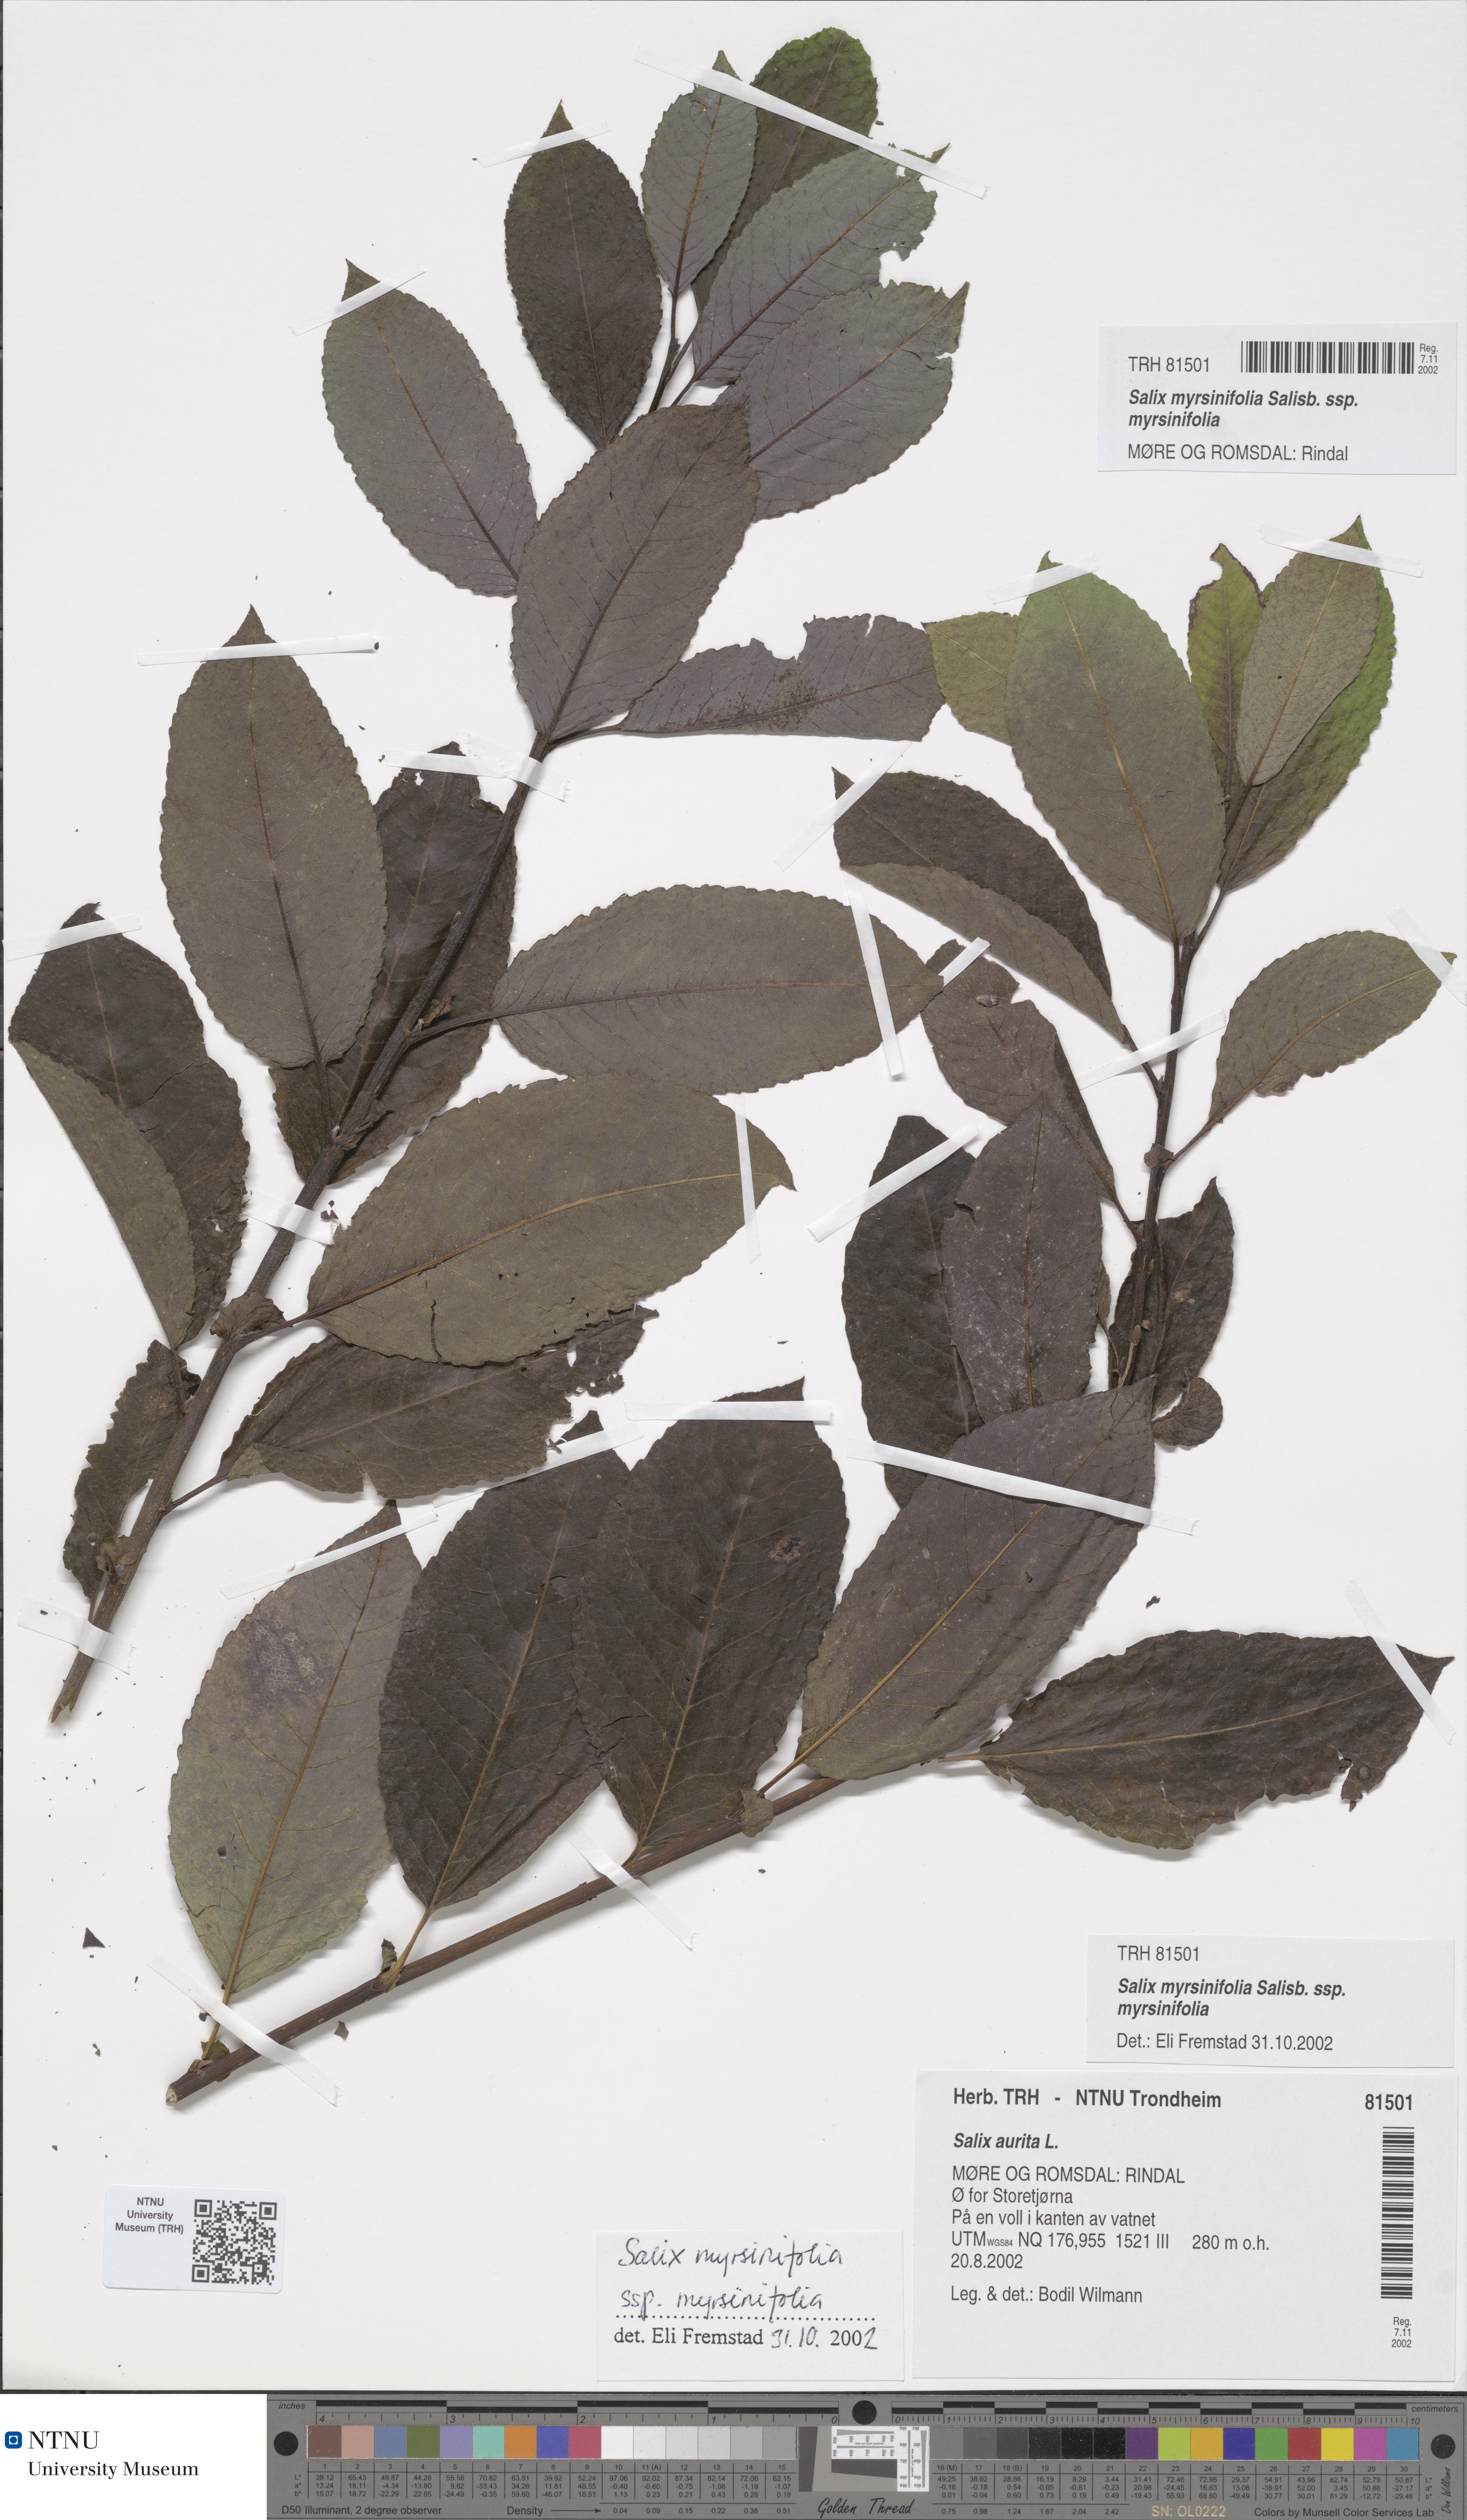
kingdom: Plantae
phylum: Tracheophyta
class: Magnoliopsida
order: Malpighiales
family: Salicaceae
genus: Salix
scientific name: Salix myrsinifolia
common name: Dark-leaved willow
